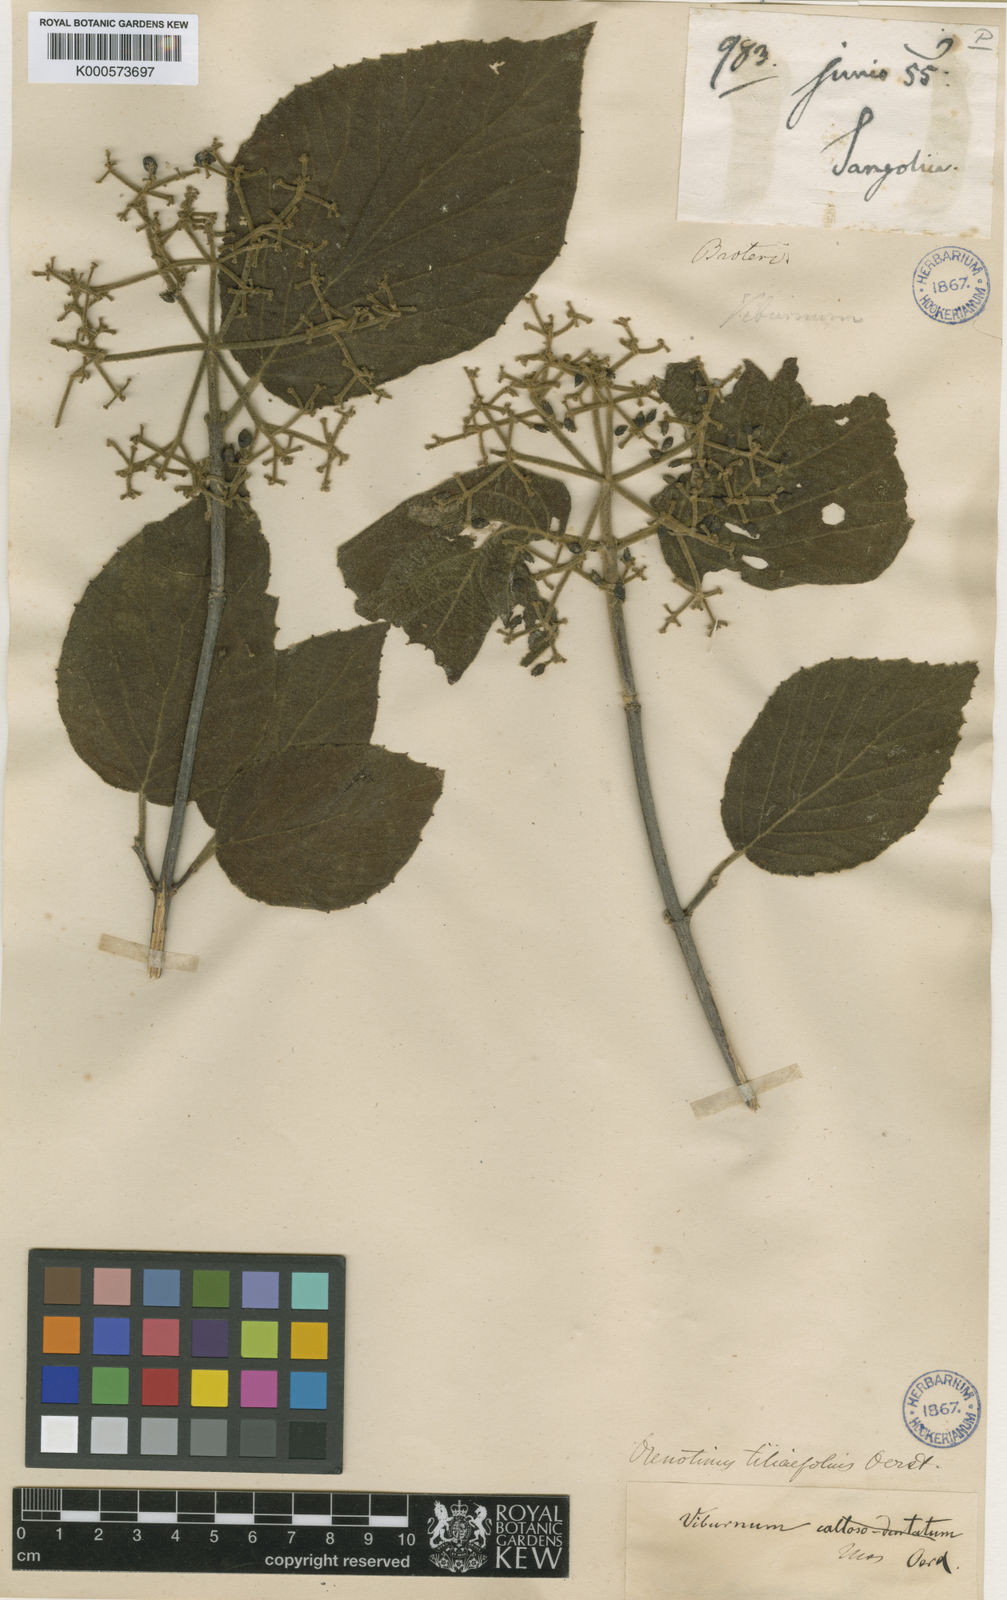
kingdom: Plantae
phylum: Tracheophyta
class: Magnoliopsida
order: Dipsacales
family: Viburnaceae
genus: Viburnum
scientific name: Viburnum tiliifolium
